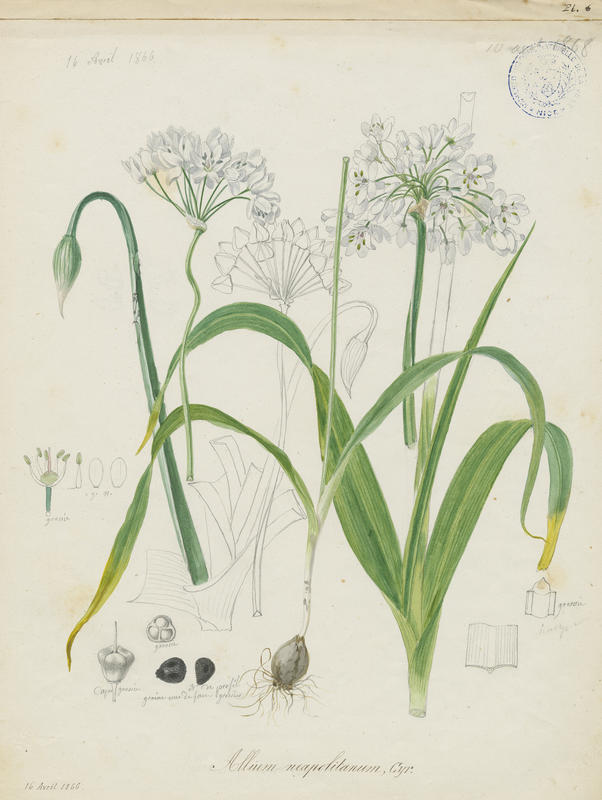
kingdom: Plantae
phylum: Tracheophyta
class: Liliopsida
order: Asparagales
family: Amaryllidaceae
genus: Allium
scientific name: Allium neapolitanum
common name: Neapolitan garlic
